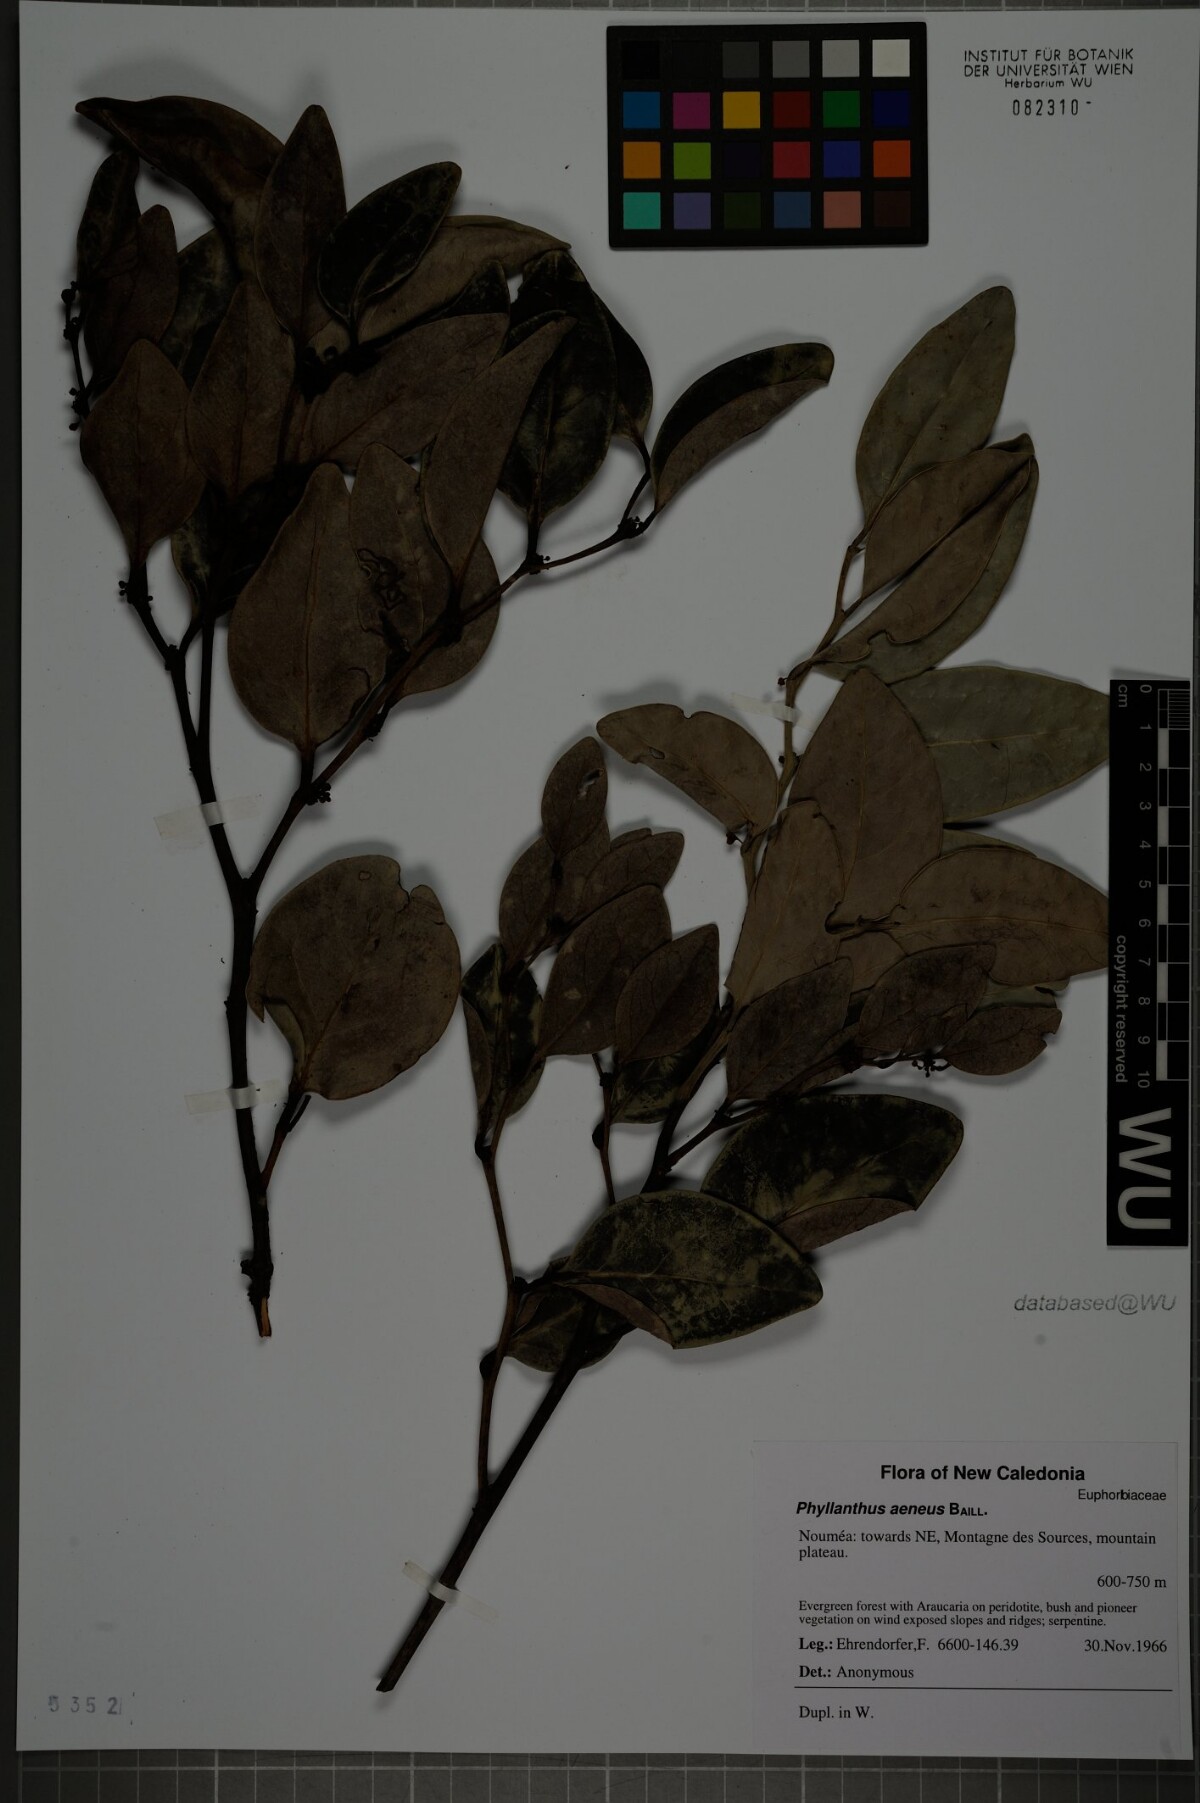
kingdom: Plantae
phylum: Tracheophyta
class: Magnoliopsida
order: Malpighiales
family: Phyllanthaceae
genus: Phyllanthus
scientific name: Phyllanthus aeneus
